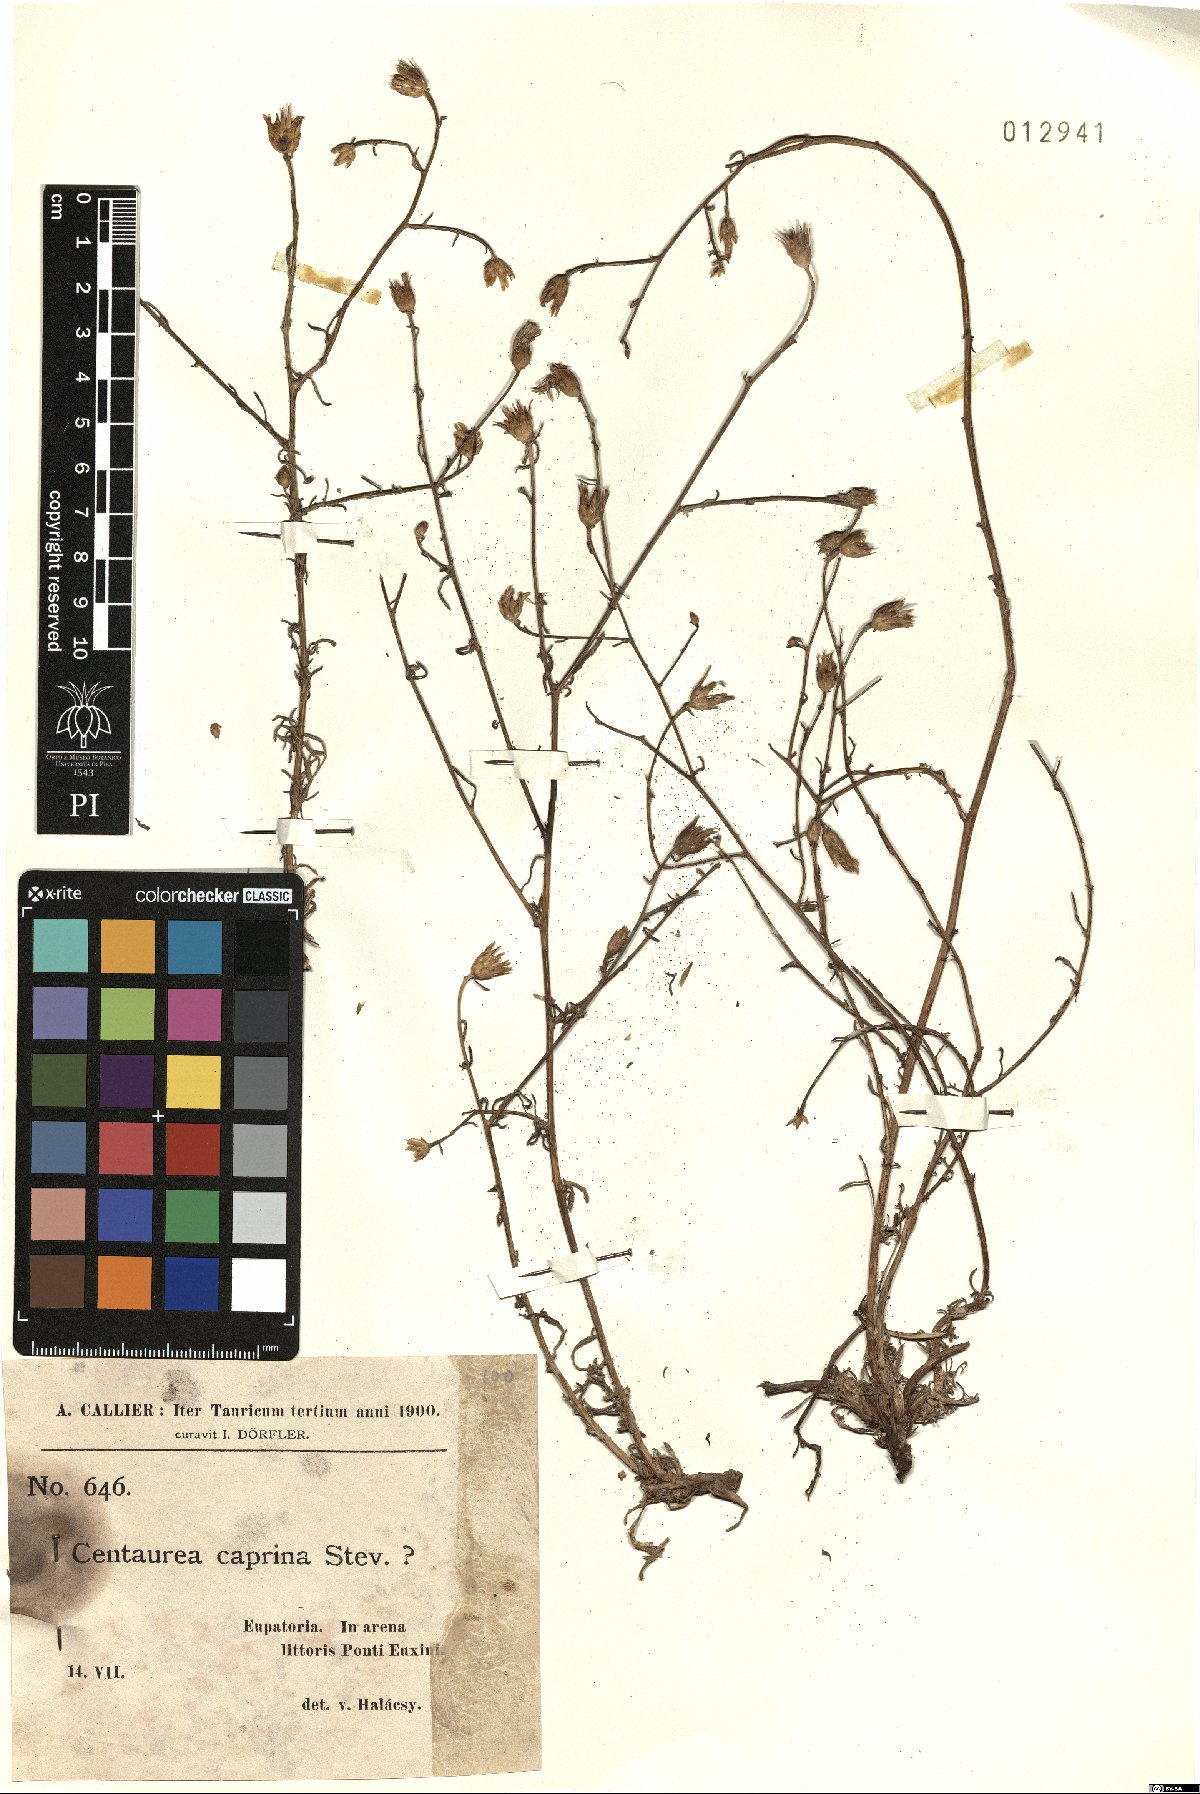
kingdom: Plantae
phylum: Tracheophyta
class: Magnoliopsida
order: Asterales
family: Asteraceae
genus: Centaurea
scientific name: Centaurea caprina
